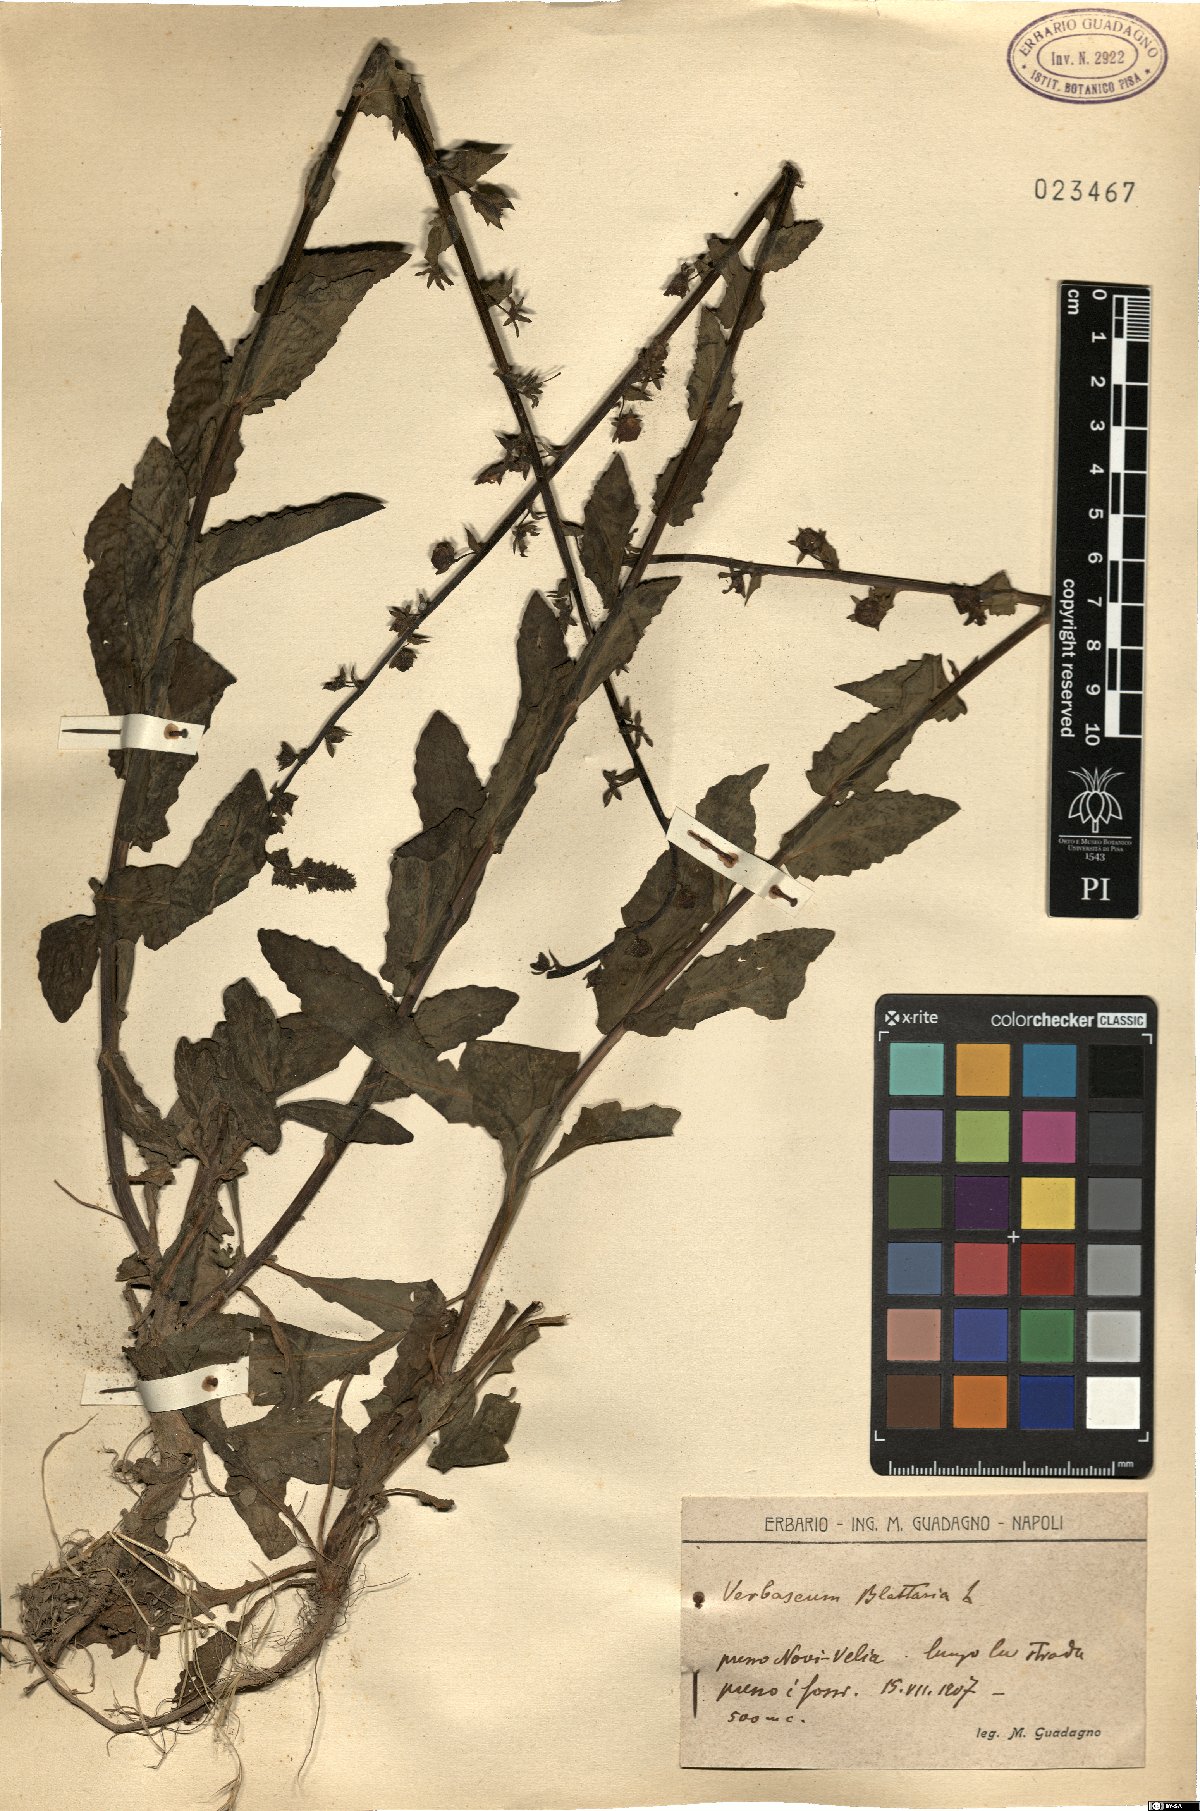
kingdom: Plantae
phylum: Tracheophyta
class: Magnoliopsida
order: Lamiales
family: Scrophulariaceae
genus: Verbascum
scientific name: Verbascum blattaria
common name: Moth mullein
